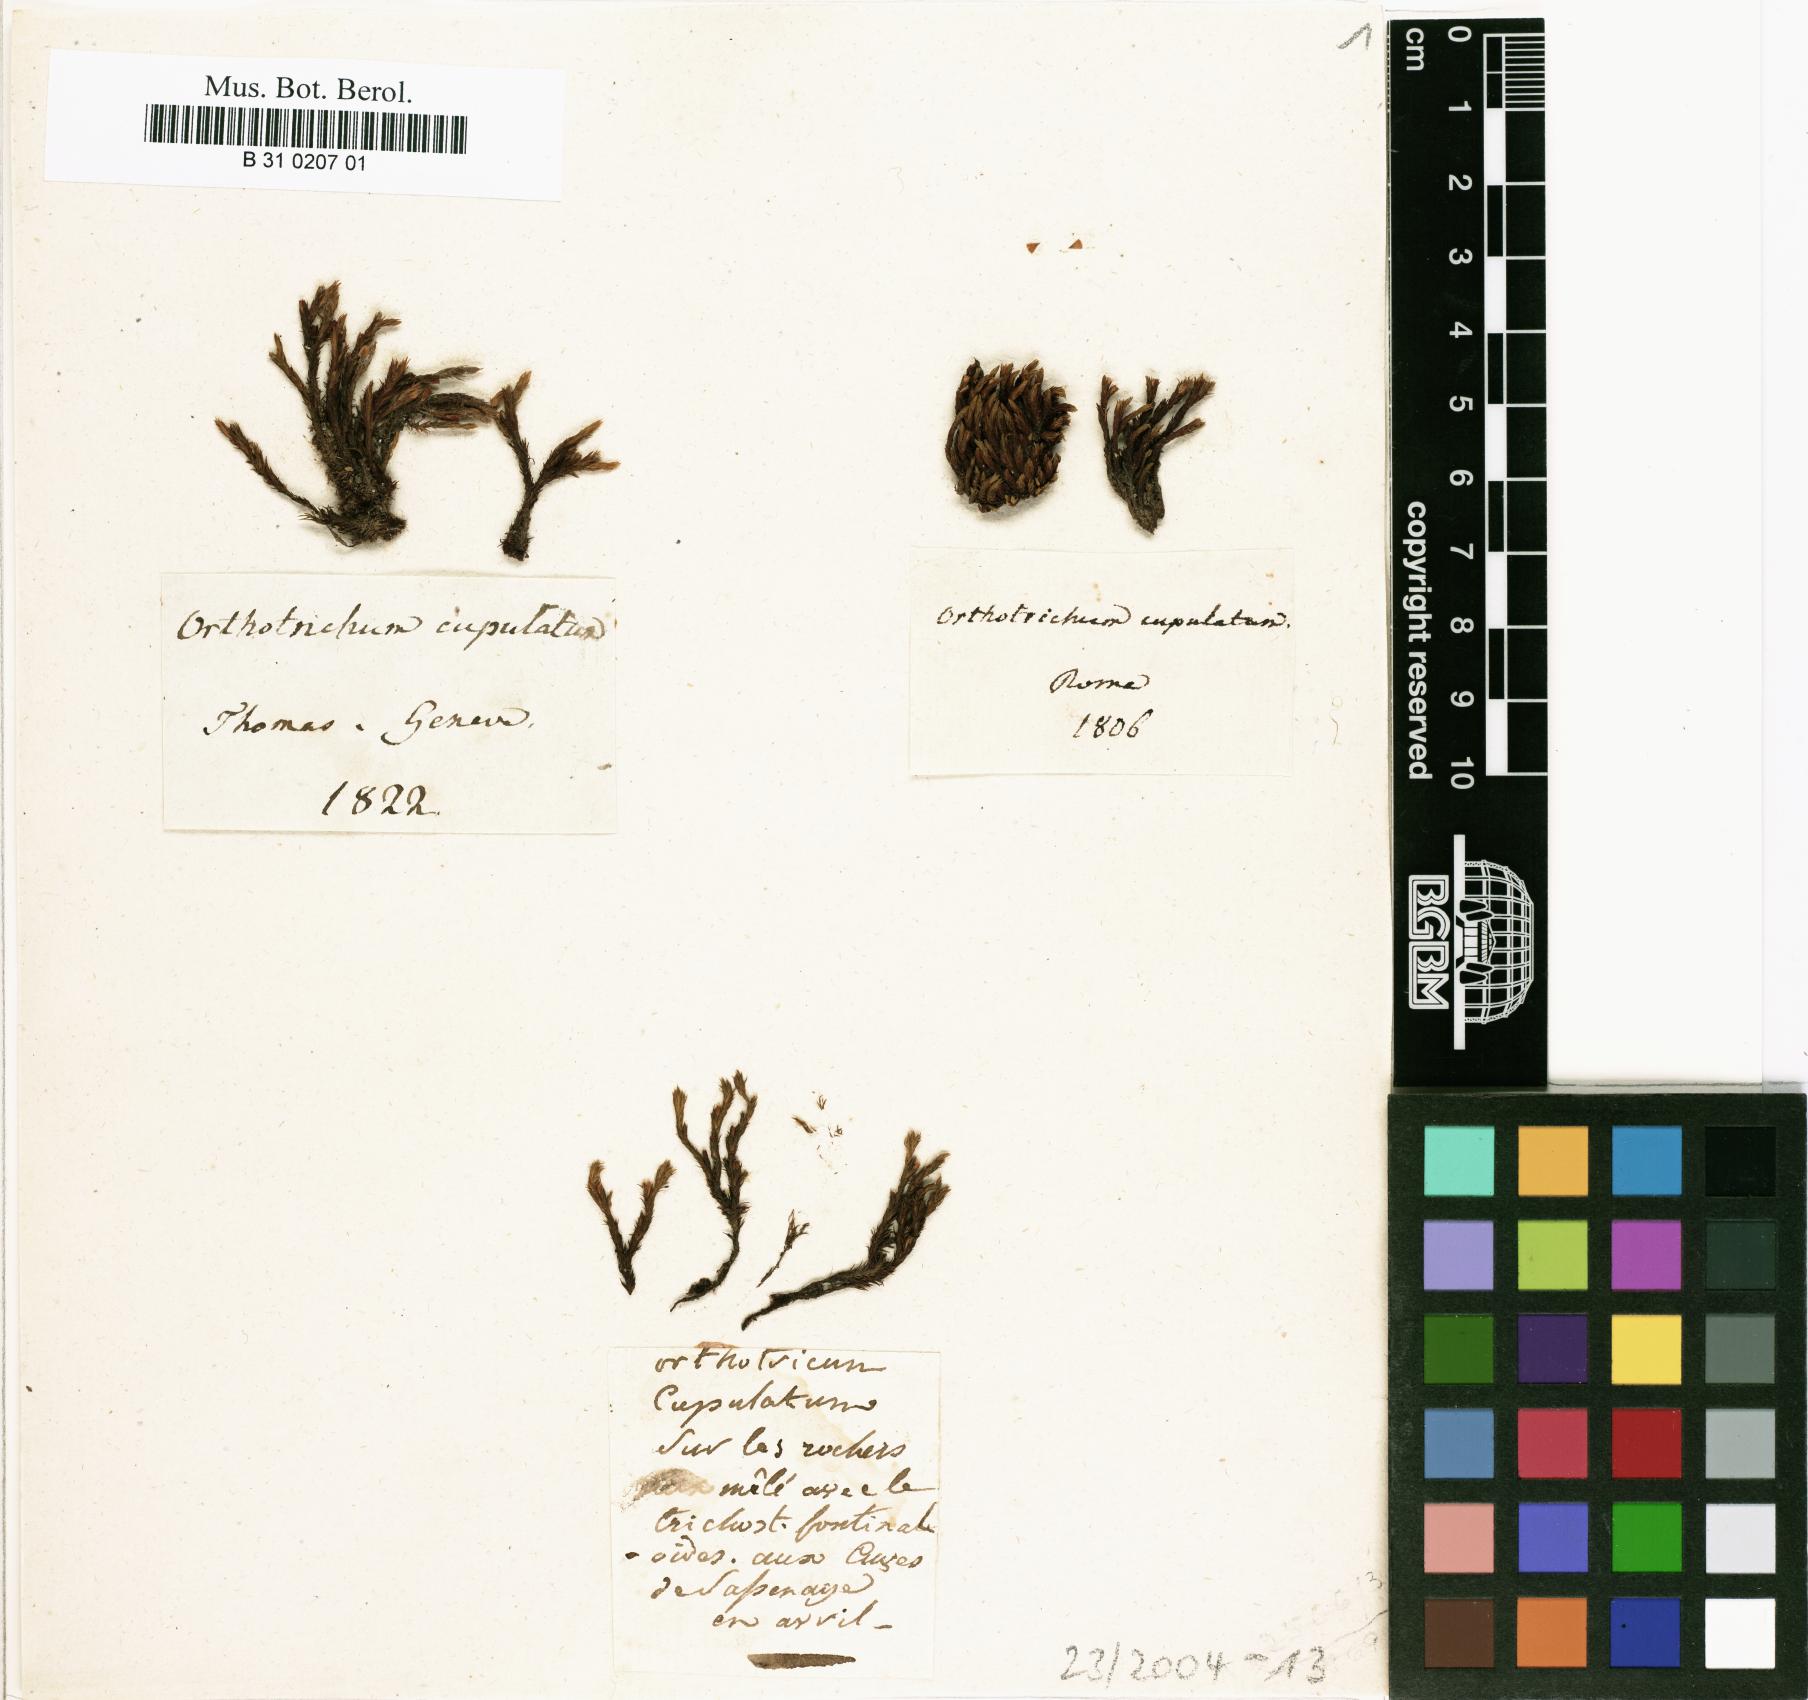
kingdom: Plantae
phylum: Bryophyta
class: Bryopsida
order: Orthotrichales
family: Orthotrichaceae
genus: Orthotrichum
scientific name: Orthotrichum cupulatum
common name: Hooded bristle-moss
